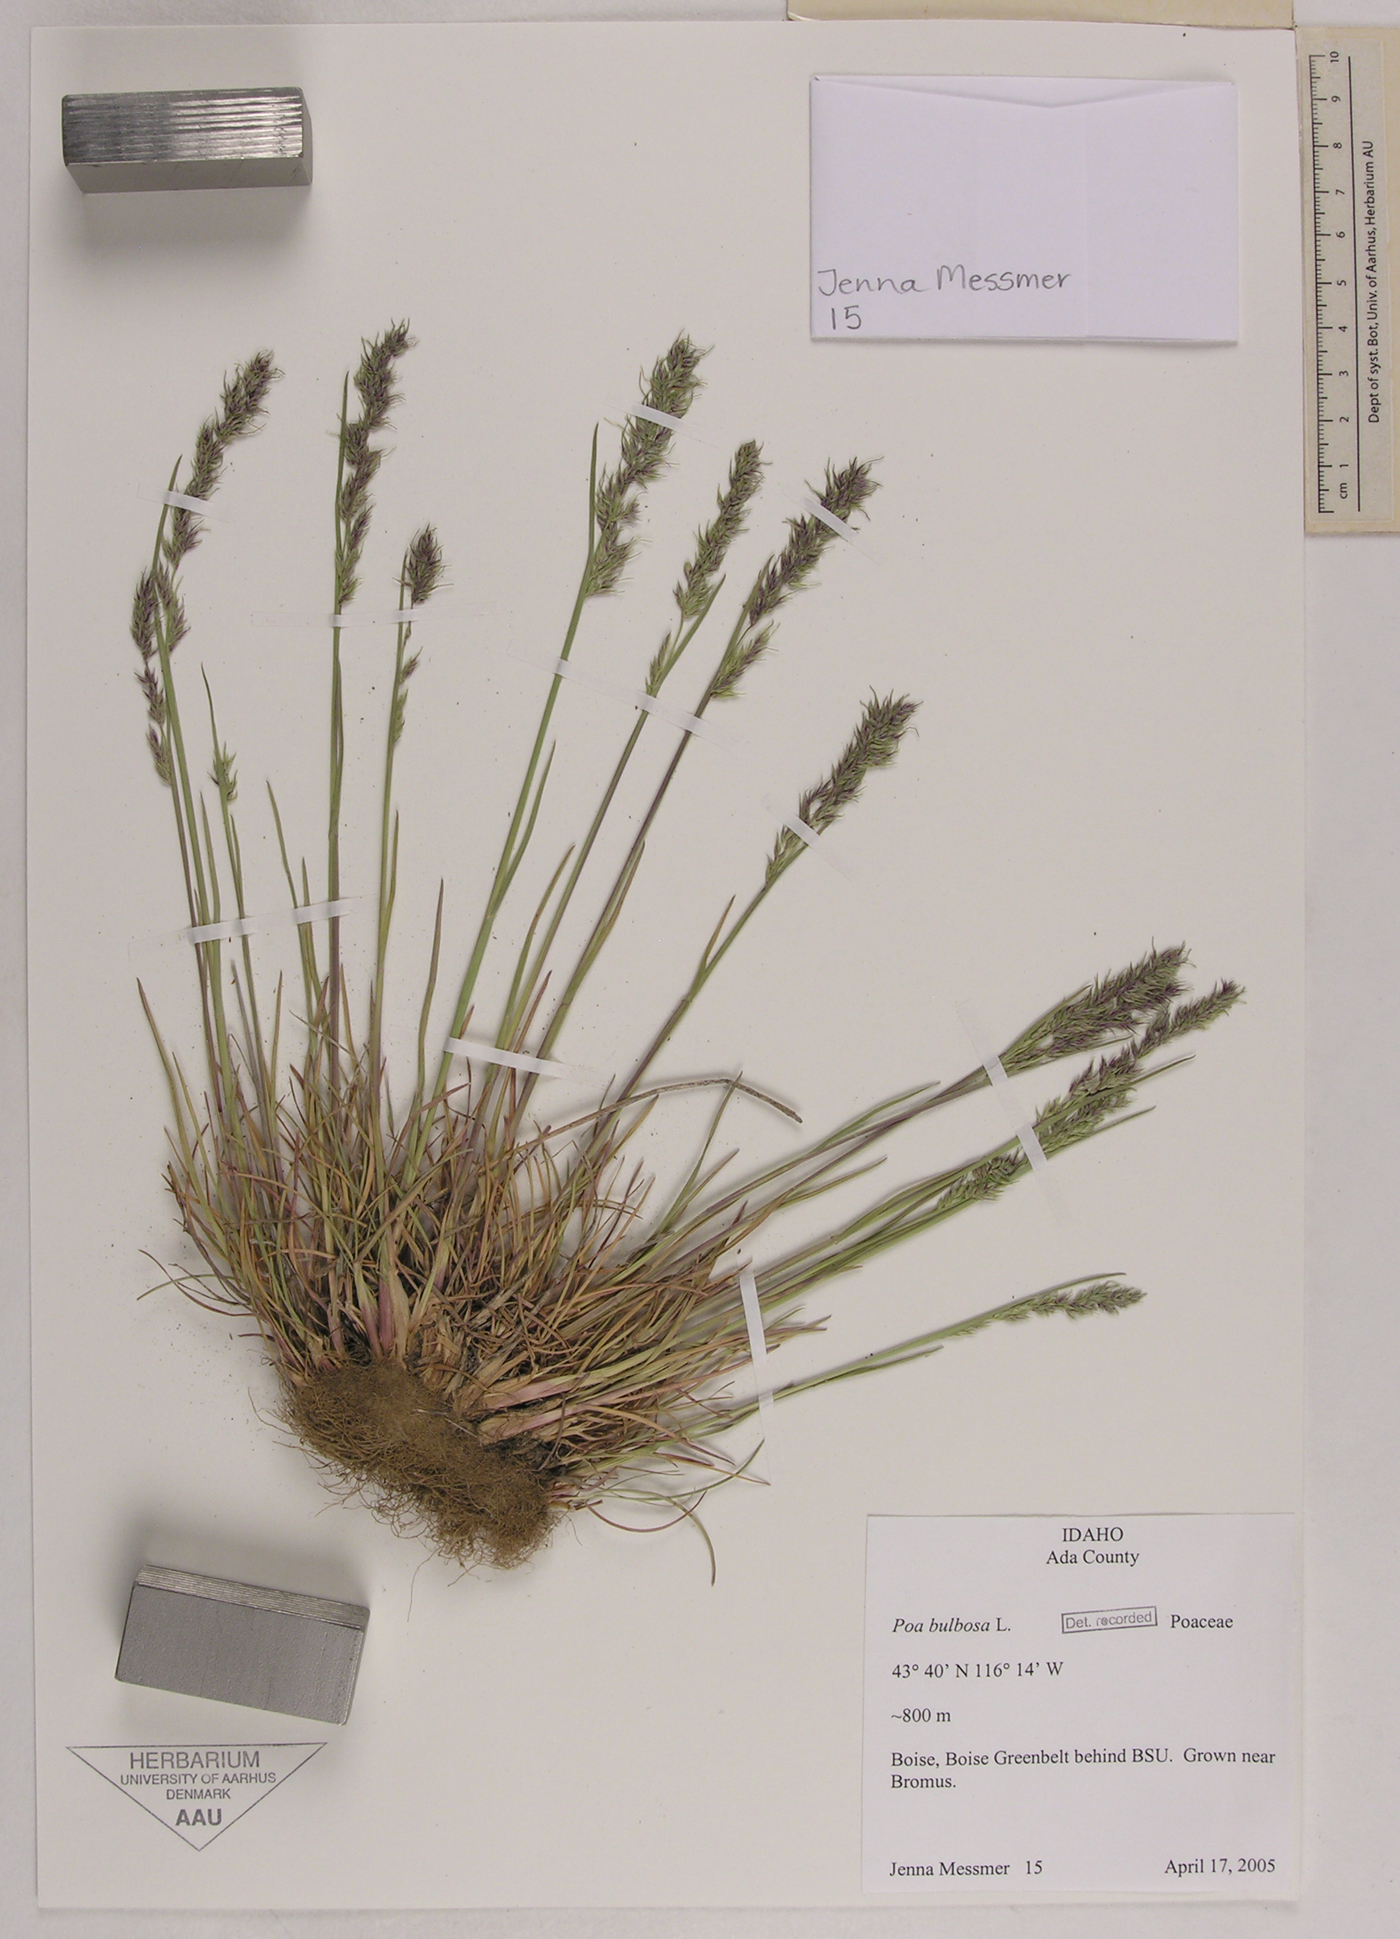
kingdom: Plantae
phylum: Tracheophyta
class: Liliopsida
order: Poales
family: Poaceae
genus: Poa
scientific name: Poa bulbosa
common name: Bulbous bluegrass
